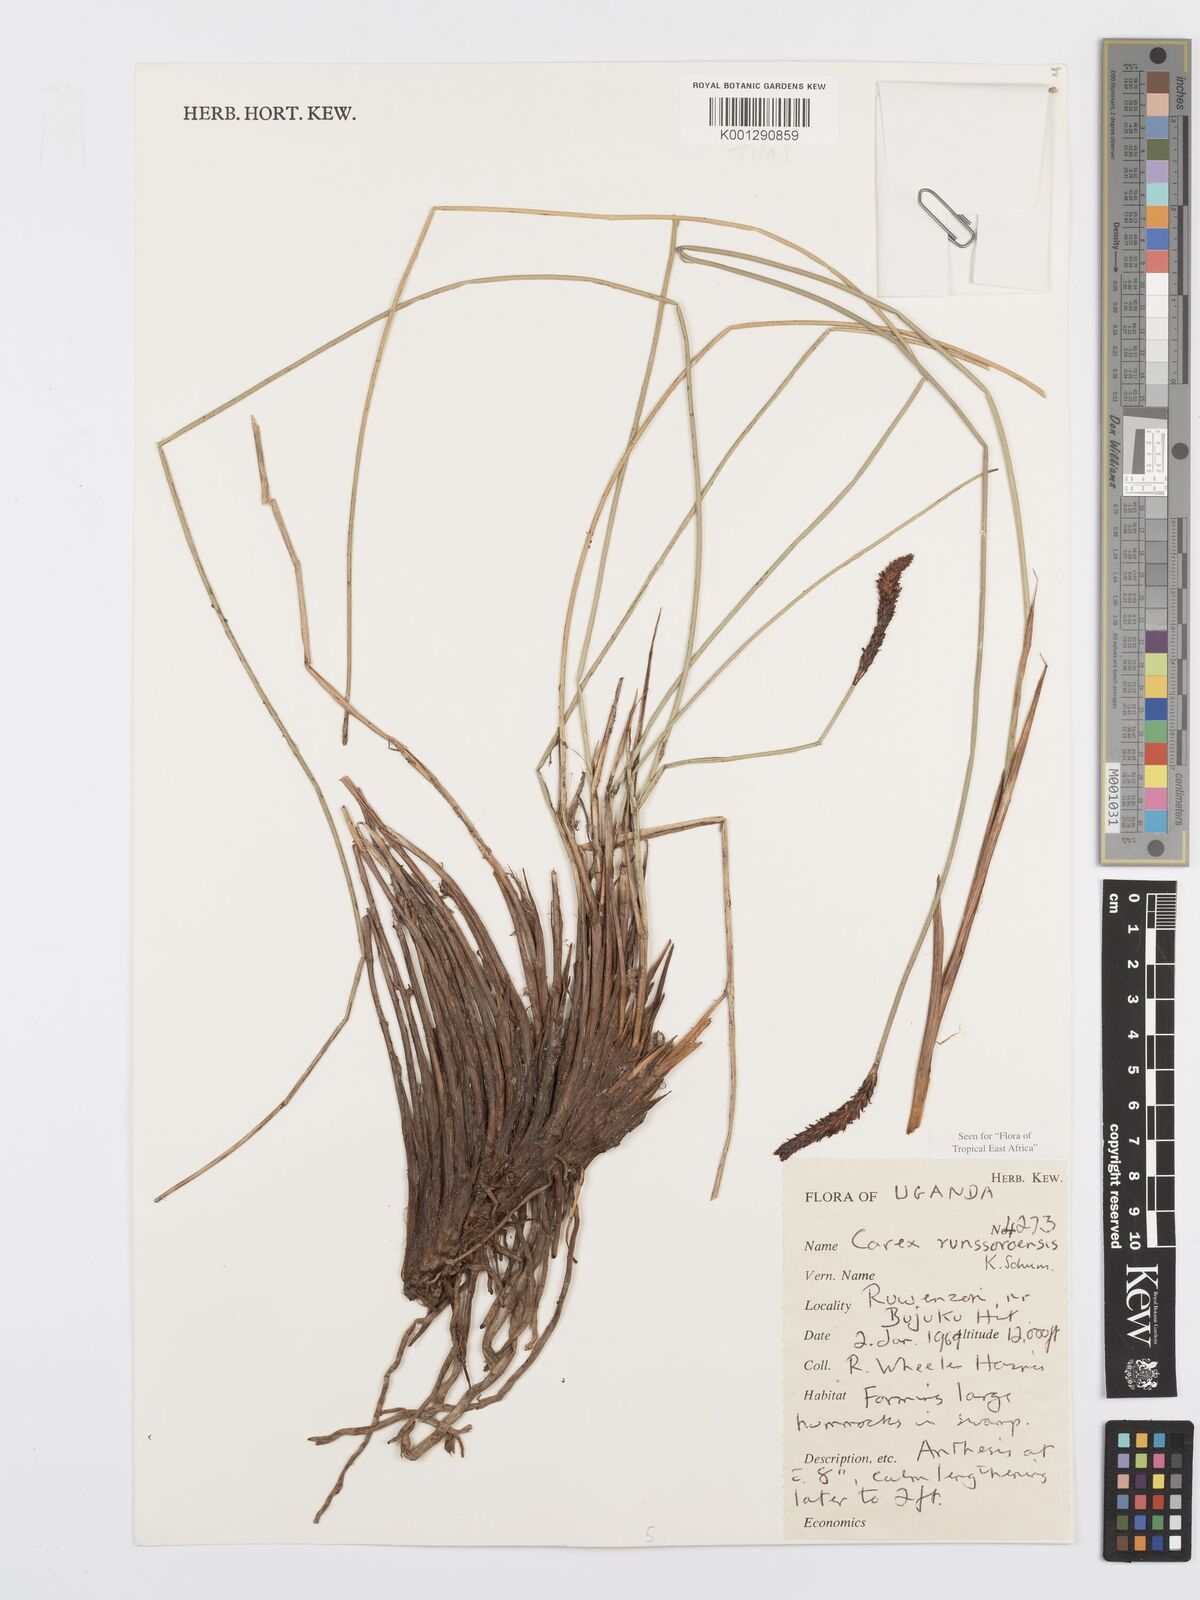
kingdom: Plantae
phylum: Tracheophyta
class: Liliopsida
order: Poales
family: Cyperaceae
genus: Carex
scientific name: Carex runssoroensis
